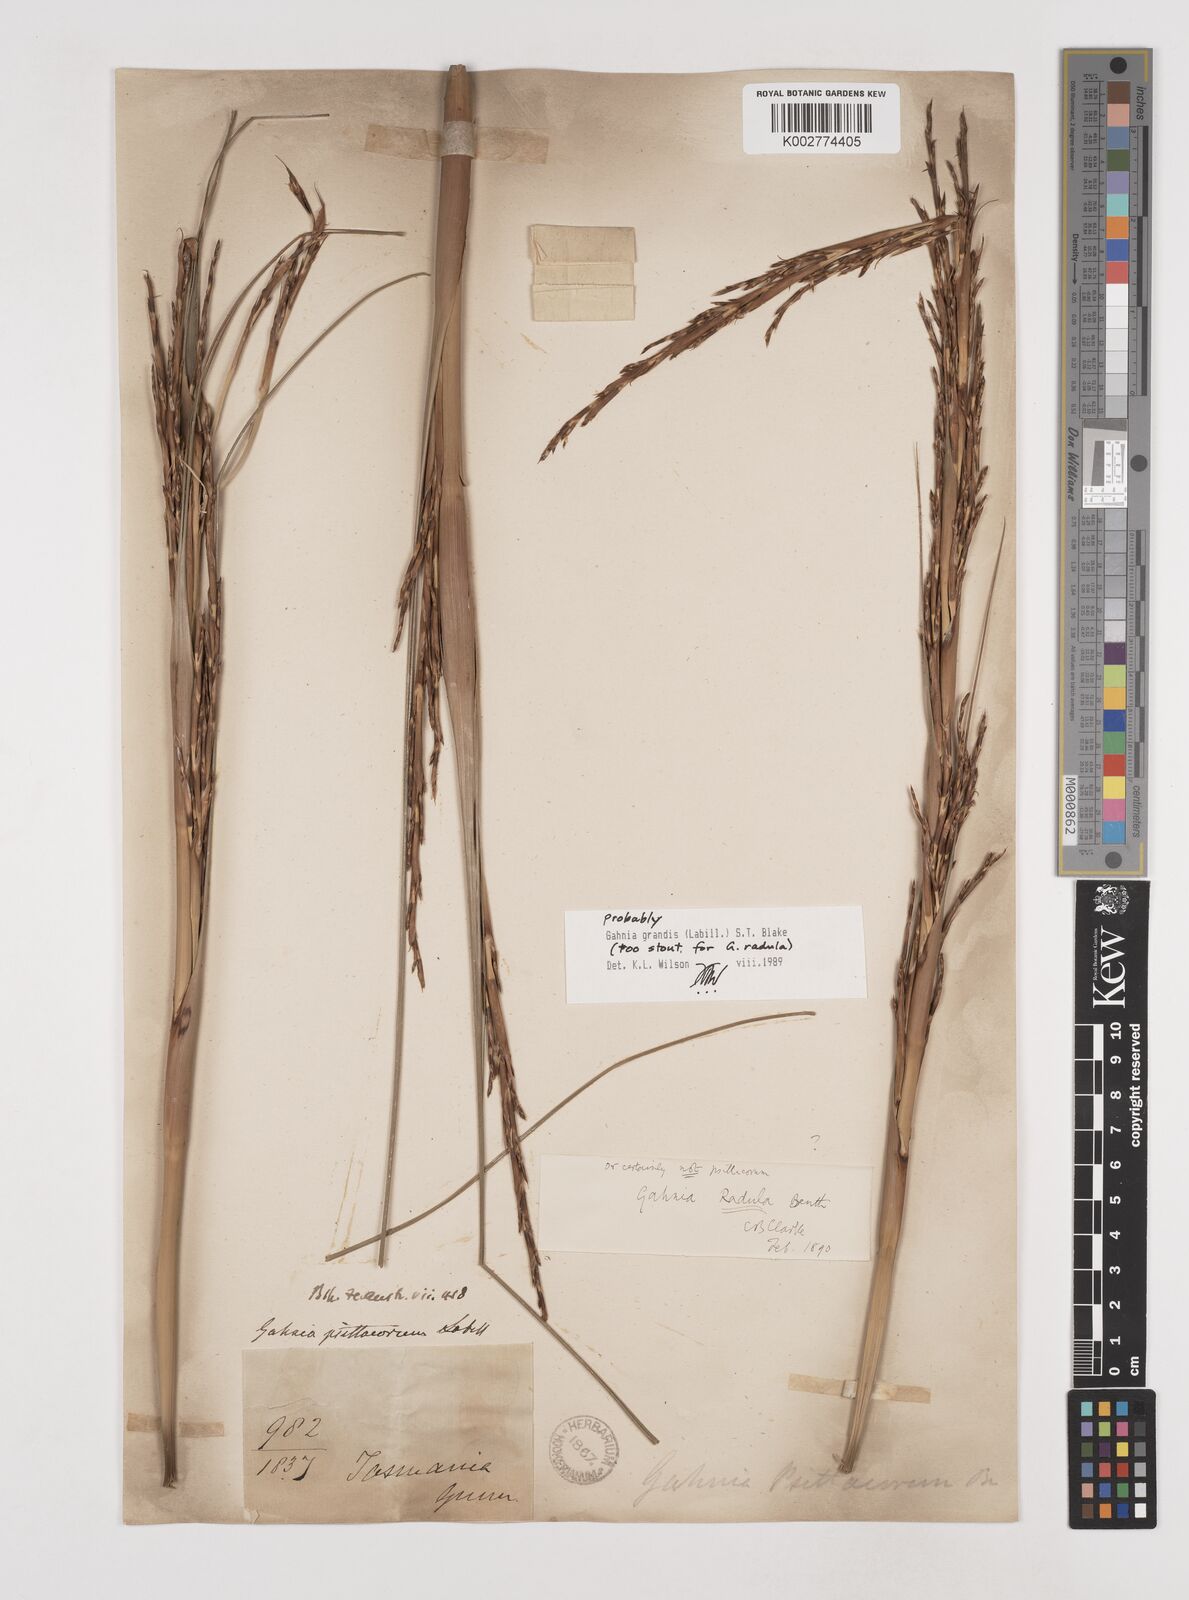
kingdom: Plantae
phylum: Tracheophyta
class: Liliopsida
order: Poales
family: Cyperaceae
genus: Gahnia
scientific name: Gahnia grandis
